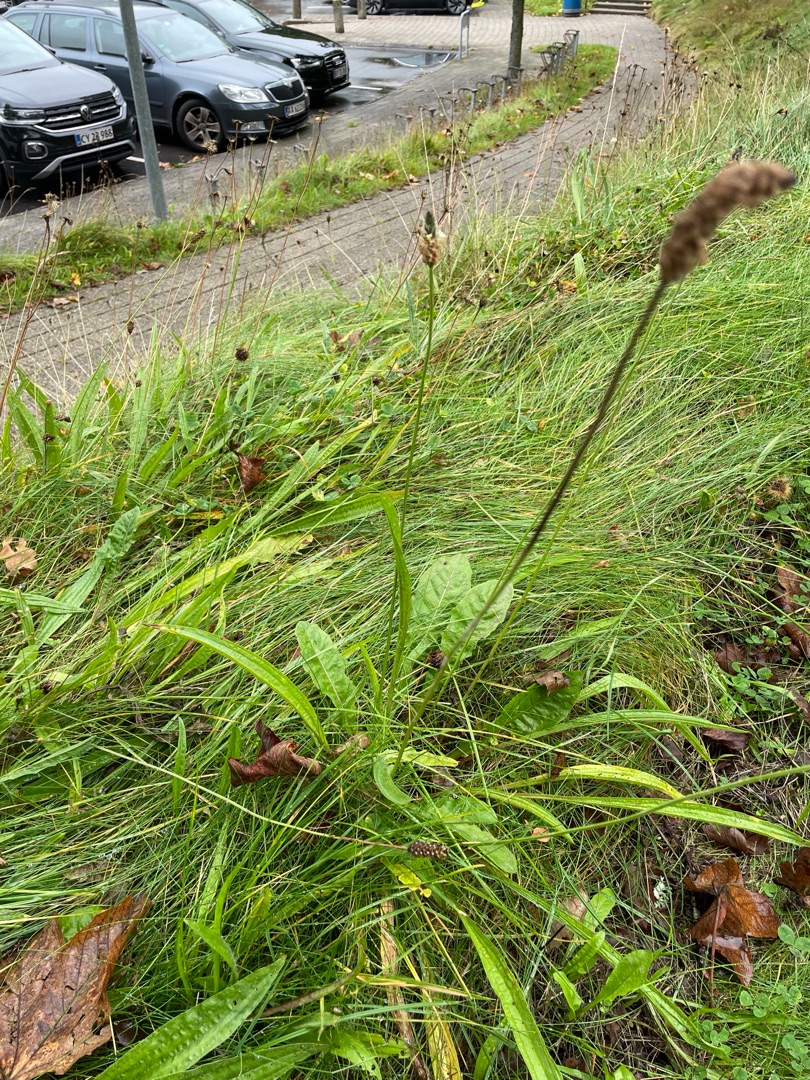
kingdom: Plantae
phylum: Tracheophyta
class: Magnoliopsida
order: Lamiales
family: Plantaginaceae
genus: Plantago
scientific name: Plantago lanceolata
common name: Lancet-vejbred
